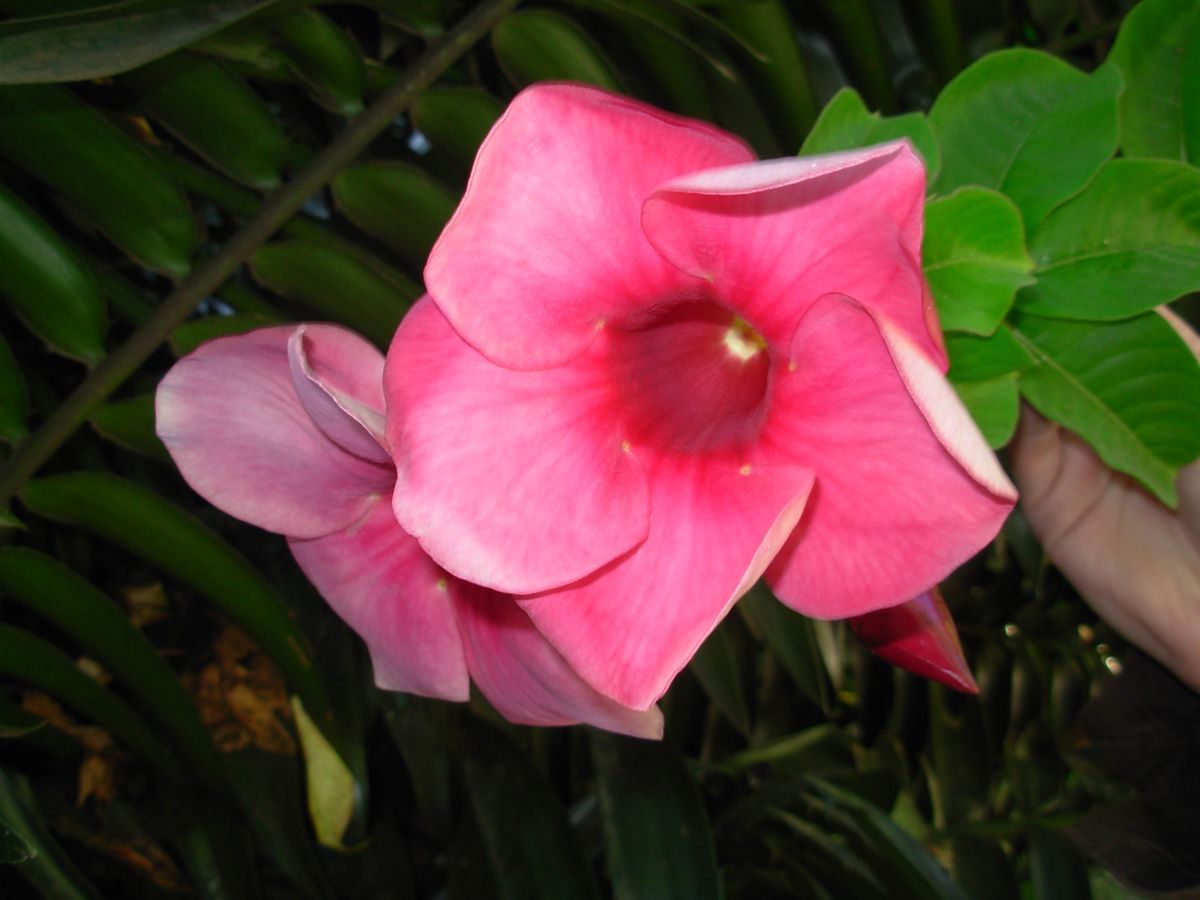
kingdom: Plantae
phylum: Tracheophyta
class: Magnoliopsida
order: Gentianales
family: Apocynaceae
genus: Allamanda
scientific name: Allamanda blanchetii
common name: Purple allamanda
